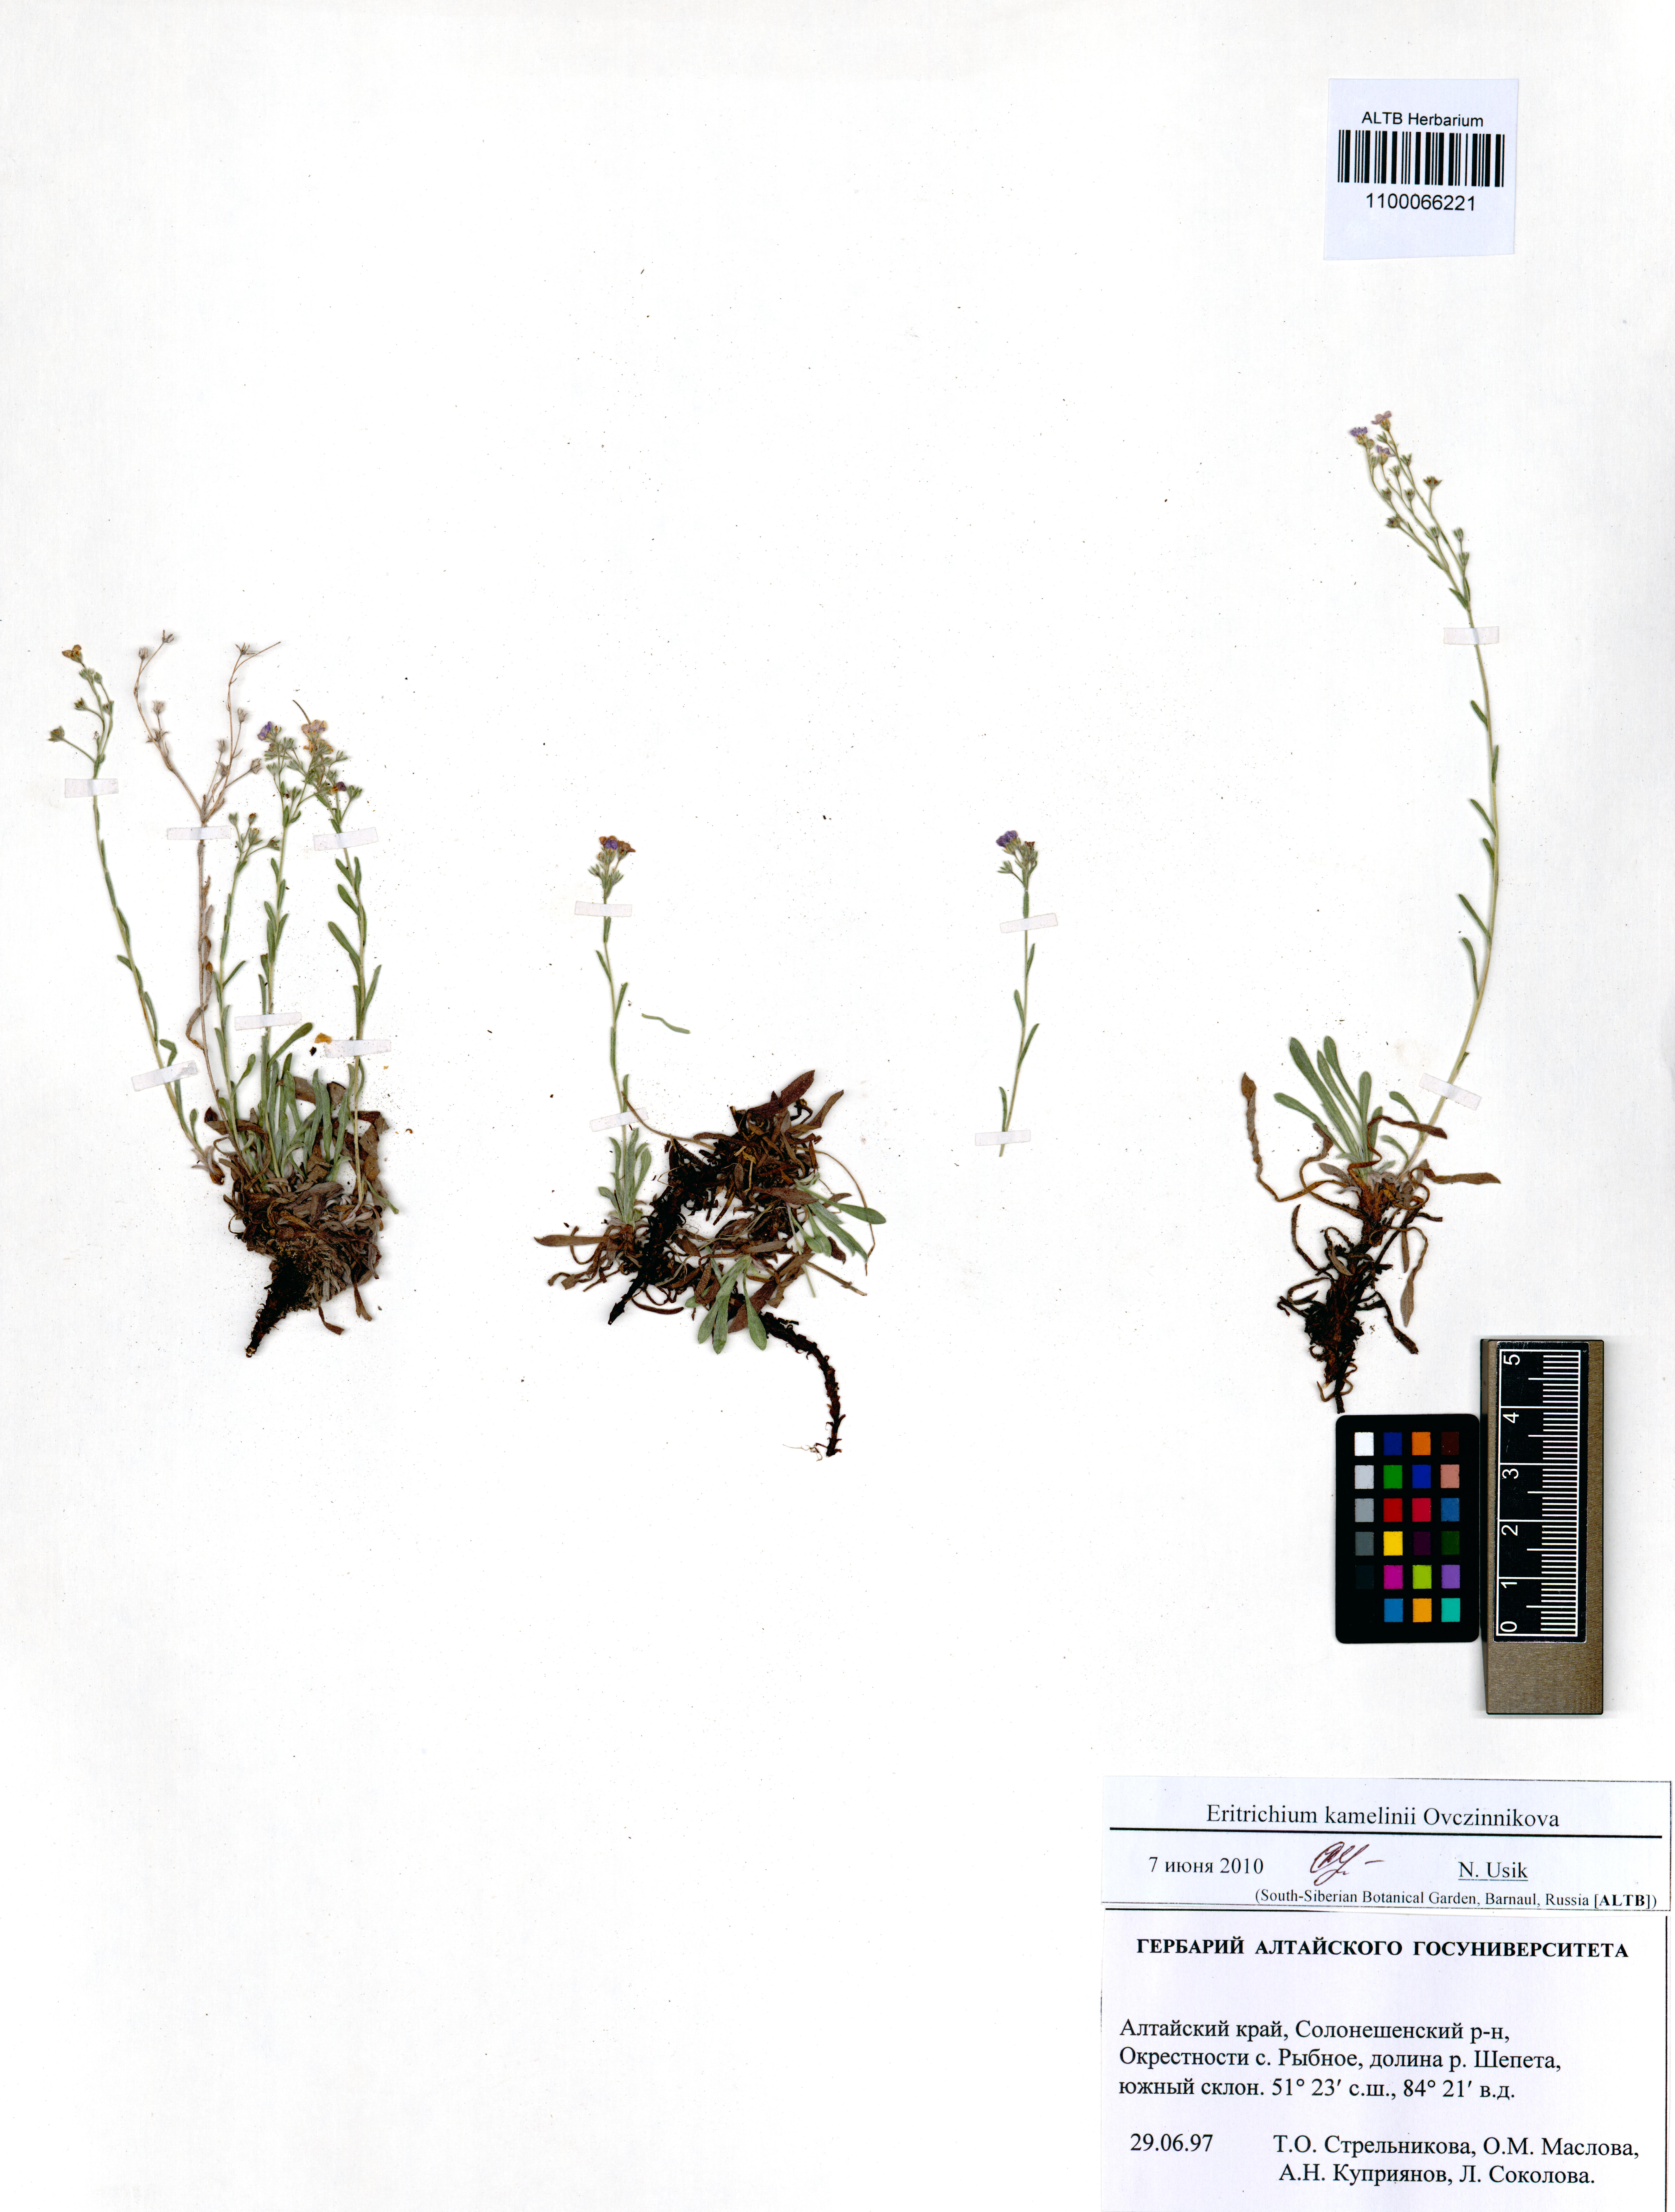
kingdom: Plantae
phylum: Tracheophyta
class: Magnoliopsida
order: Boraginales
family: Boraginaceae
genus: Eritrichium
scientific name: Eritrichium kamelinii
